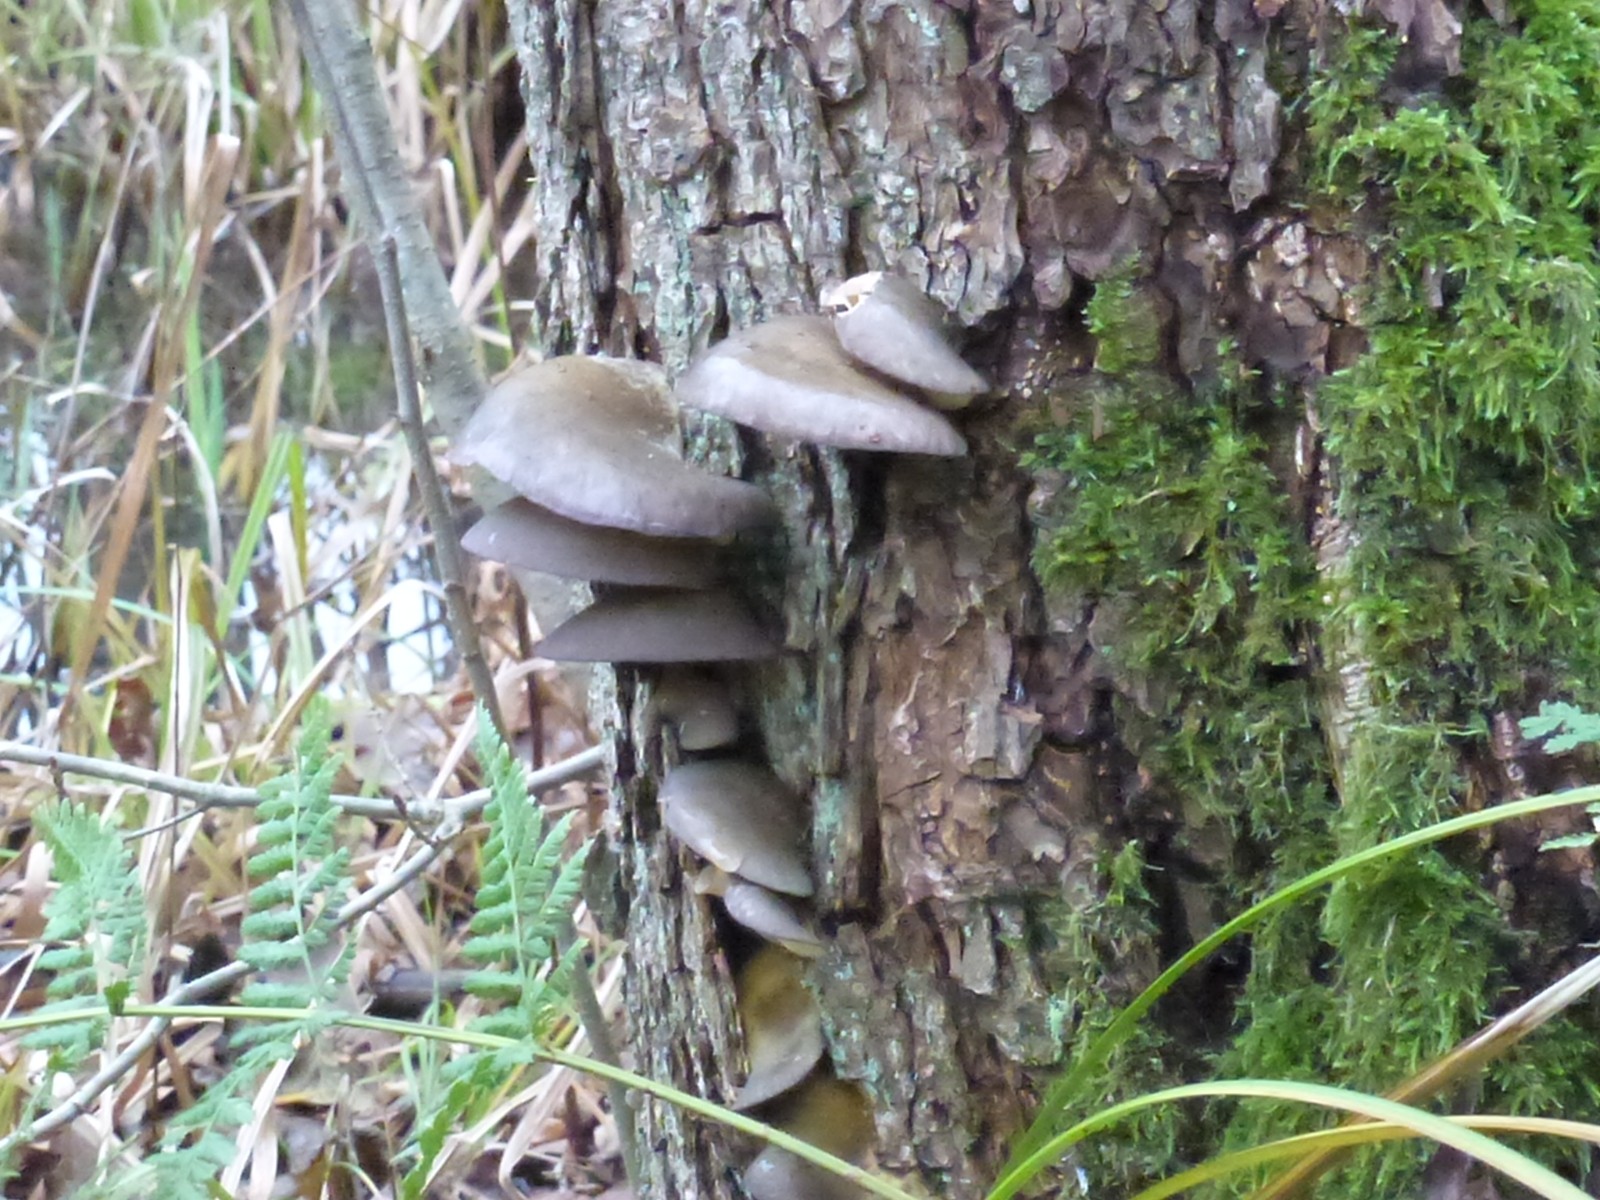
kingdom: Fungi
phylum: Basidiomycota
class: Agaricomycetes
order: Agaricales
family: Sarcomyxaceae
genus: Sarcomyxa
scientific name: Sarcomyxa serotina
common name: gummihat
